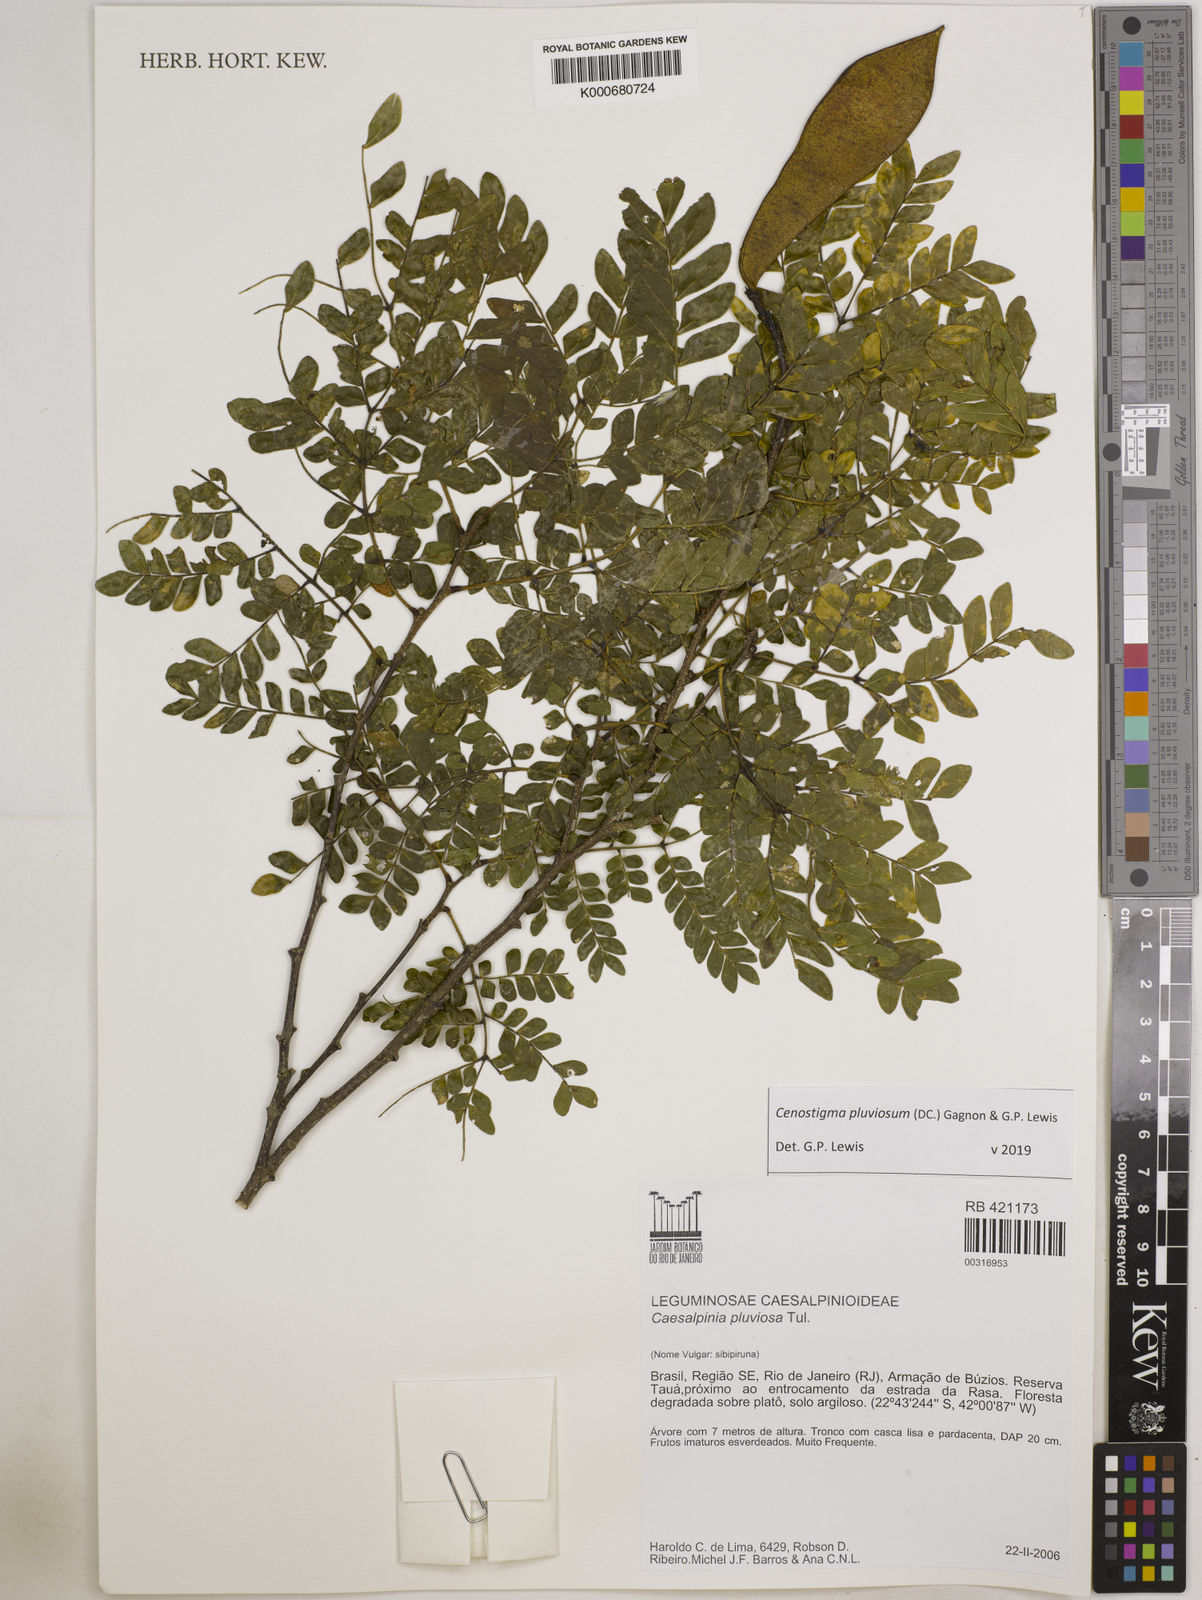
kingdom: Plantae
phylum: Tracheophyta
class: Magnoliopsida
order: Fabales
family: Fabaceae
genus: Cenostigma
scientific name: Cenostigma pluviosum
